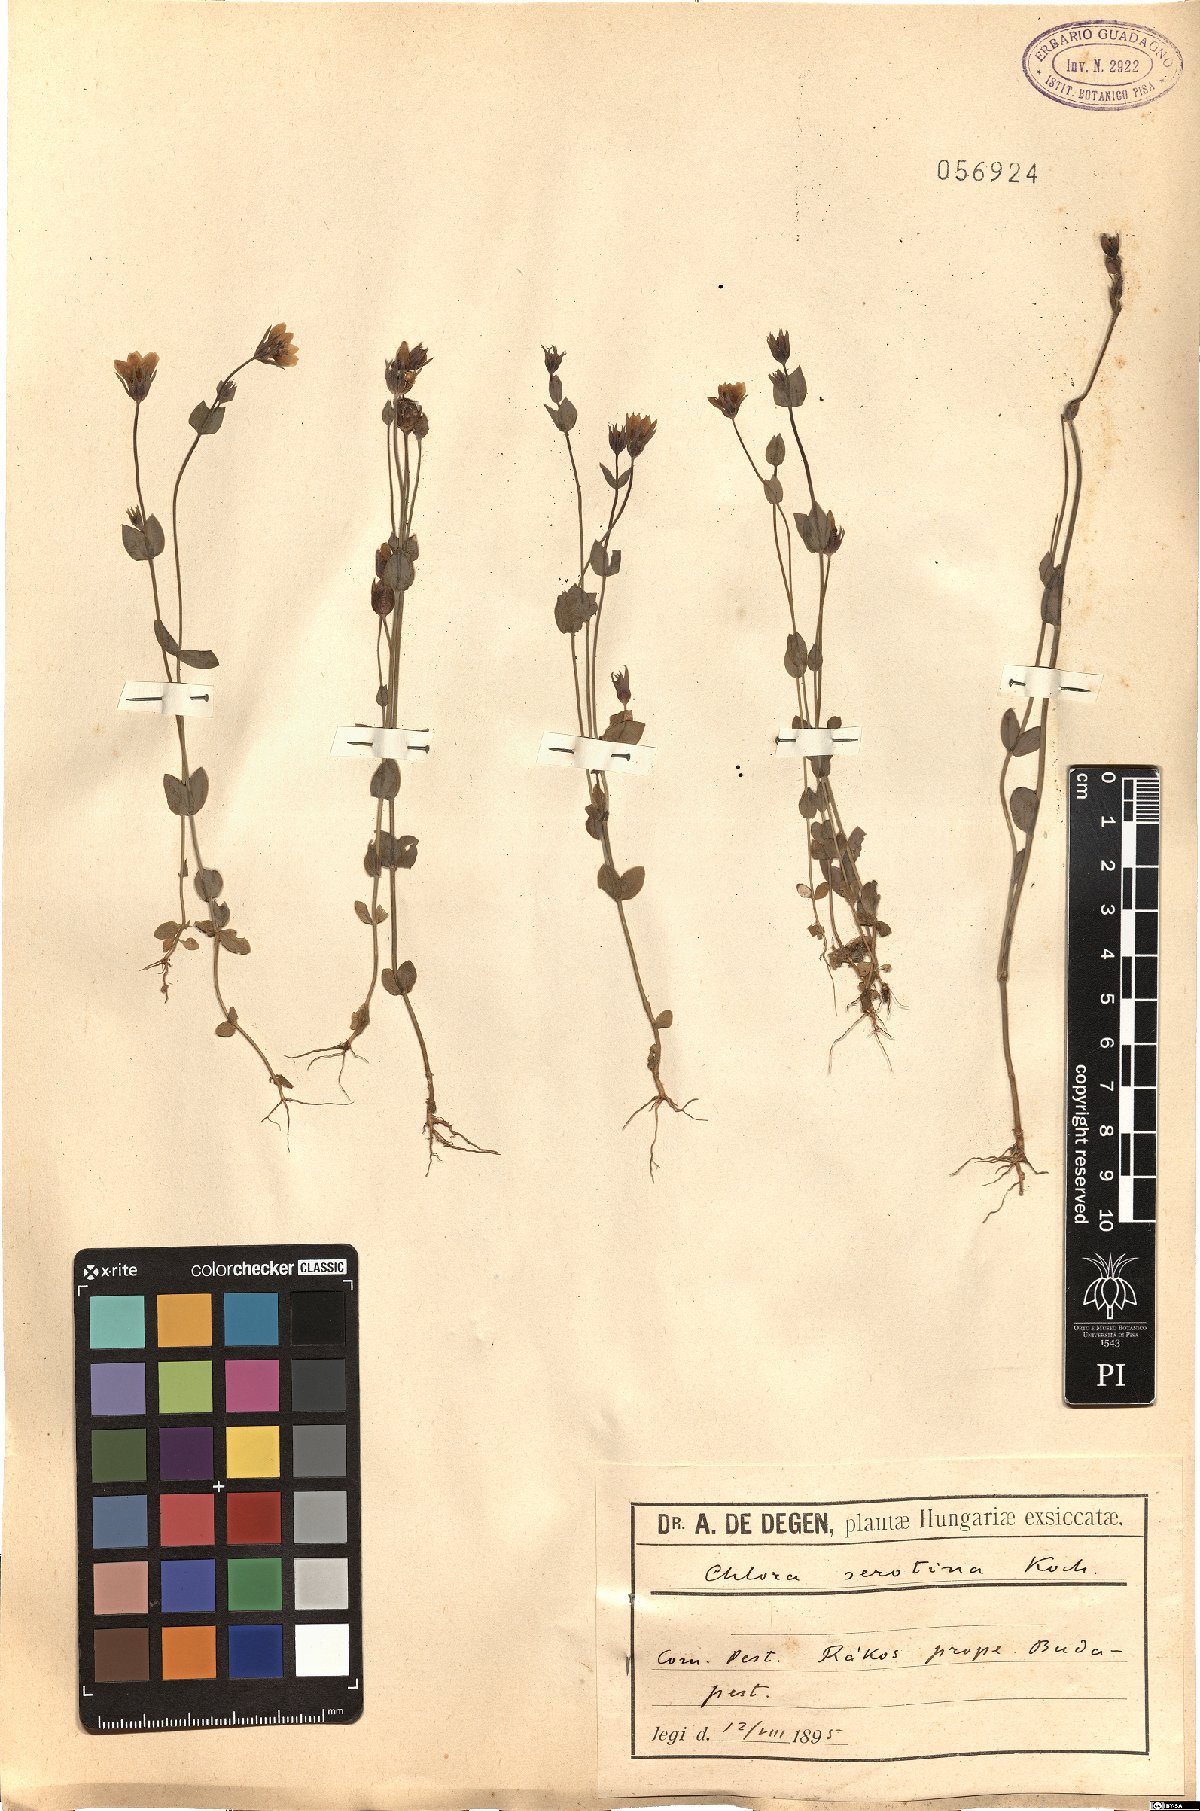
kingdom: Plantae
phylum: Tracheophyta
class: Magnoliopsida
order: Gentianales
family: Gentianaceae
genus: Blackstonia
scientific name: Blackstonia acuminata
